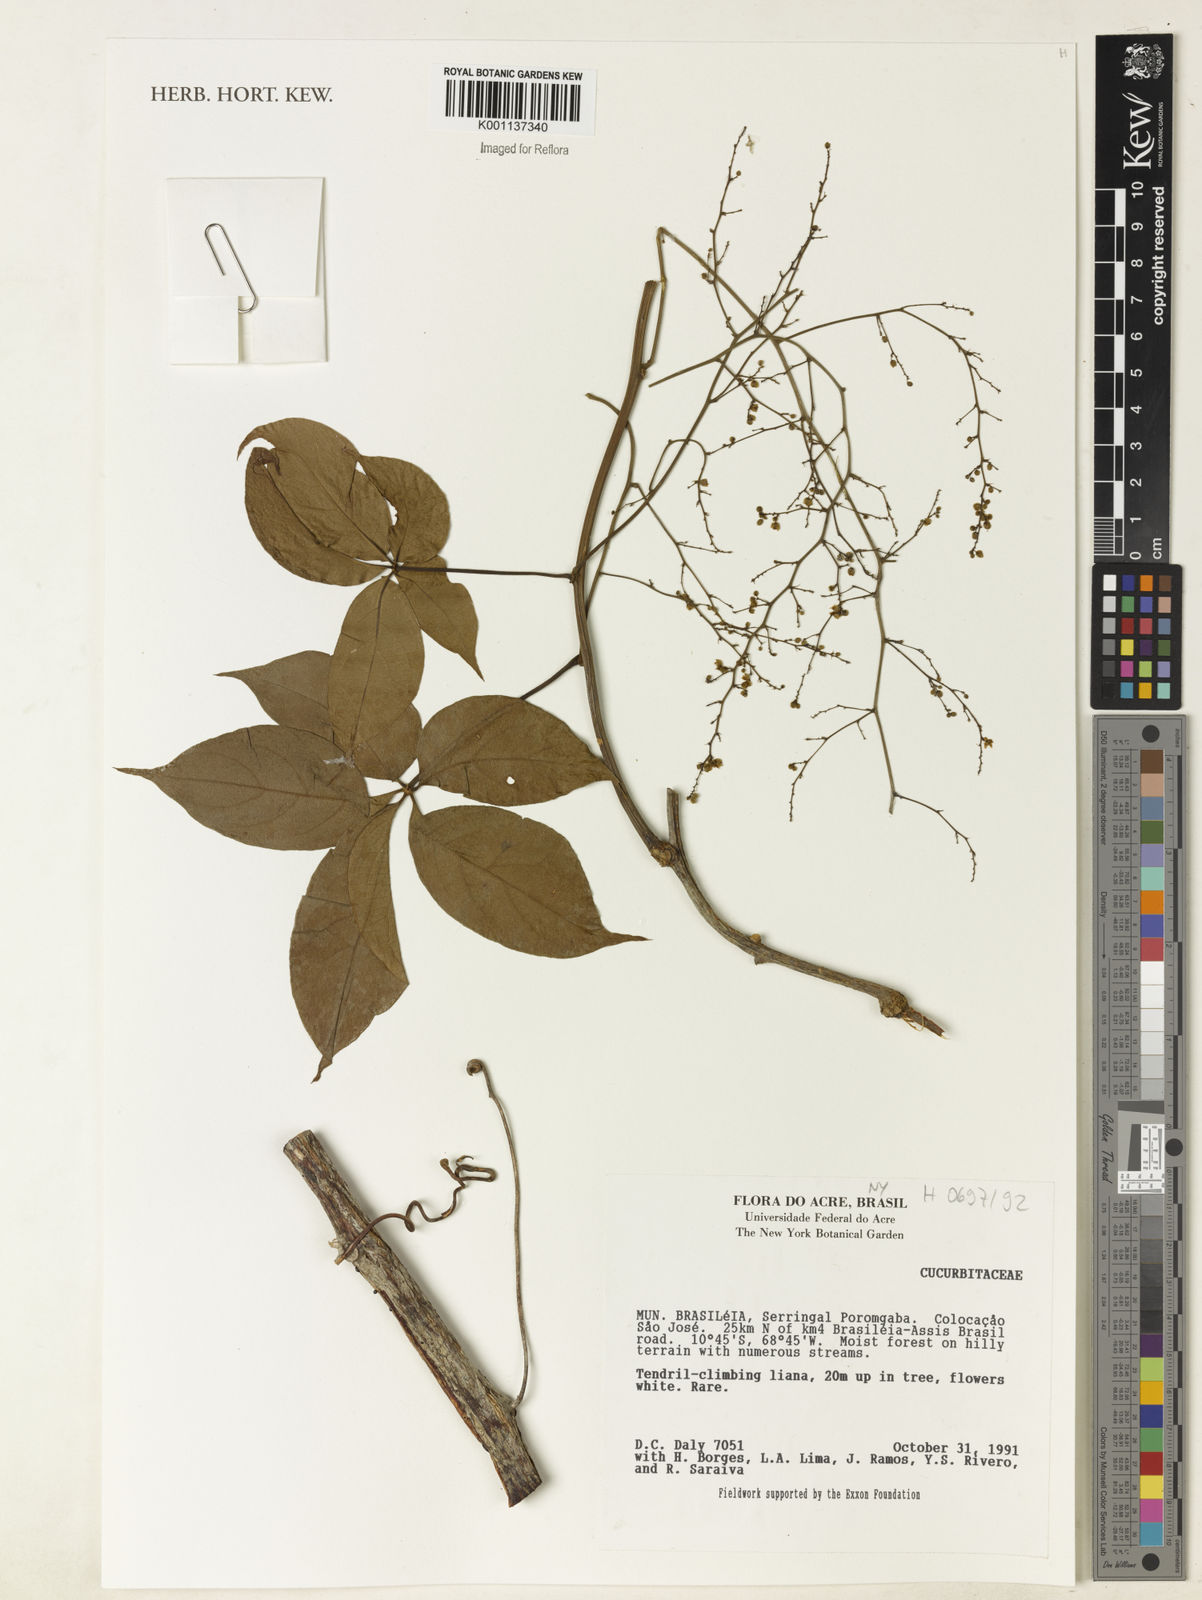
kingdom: Plantae
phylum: Tracheophyta
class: Magnoliopsida
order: Cucurbitales
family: Cucurbitaceae
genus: Sicyos
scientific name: Sicyos
